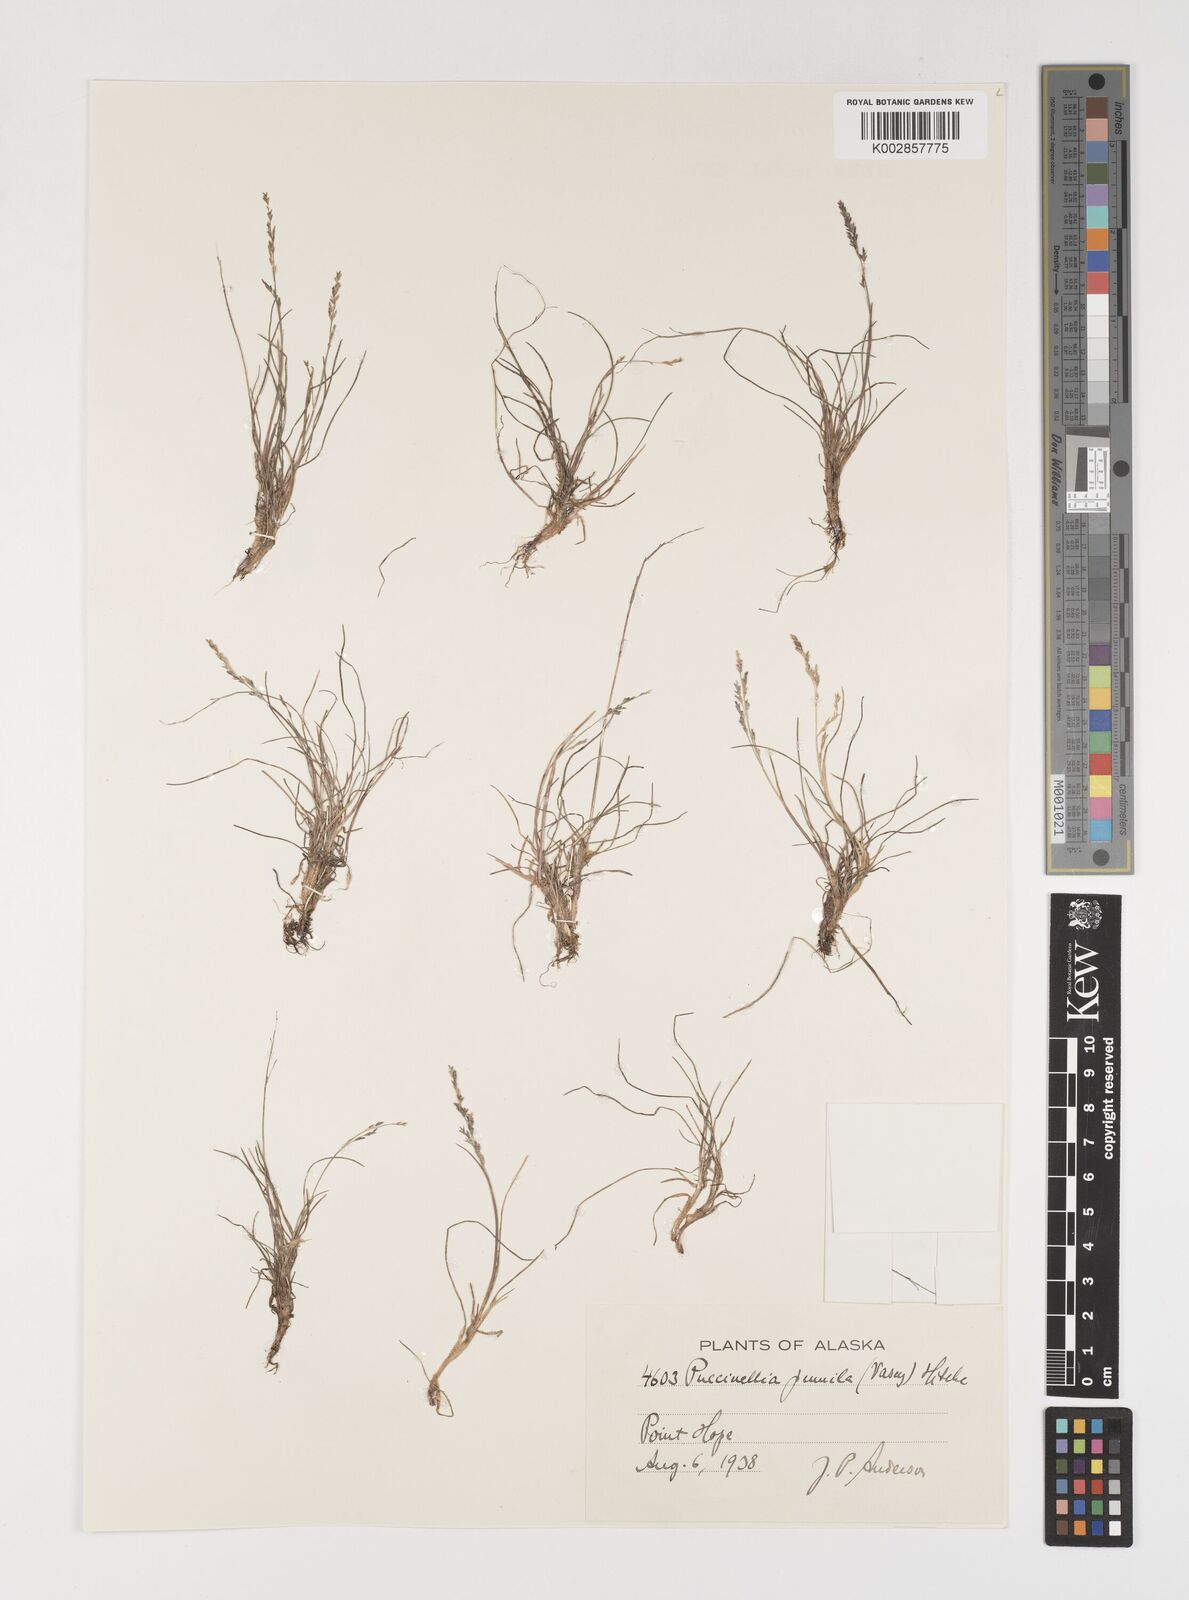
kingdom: Plantae
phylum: Tracheophyta
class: Liliopsida
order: Poales
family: Poaceae
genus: Puccinellia
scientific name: Puccinellia pumila
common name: Dwarf alkaligrass
